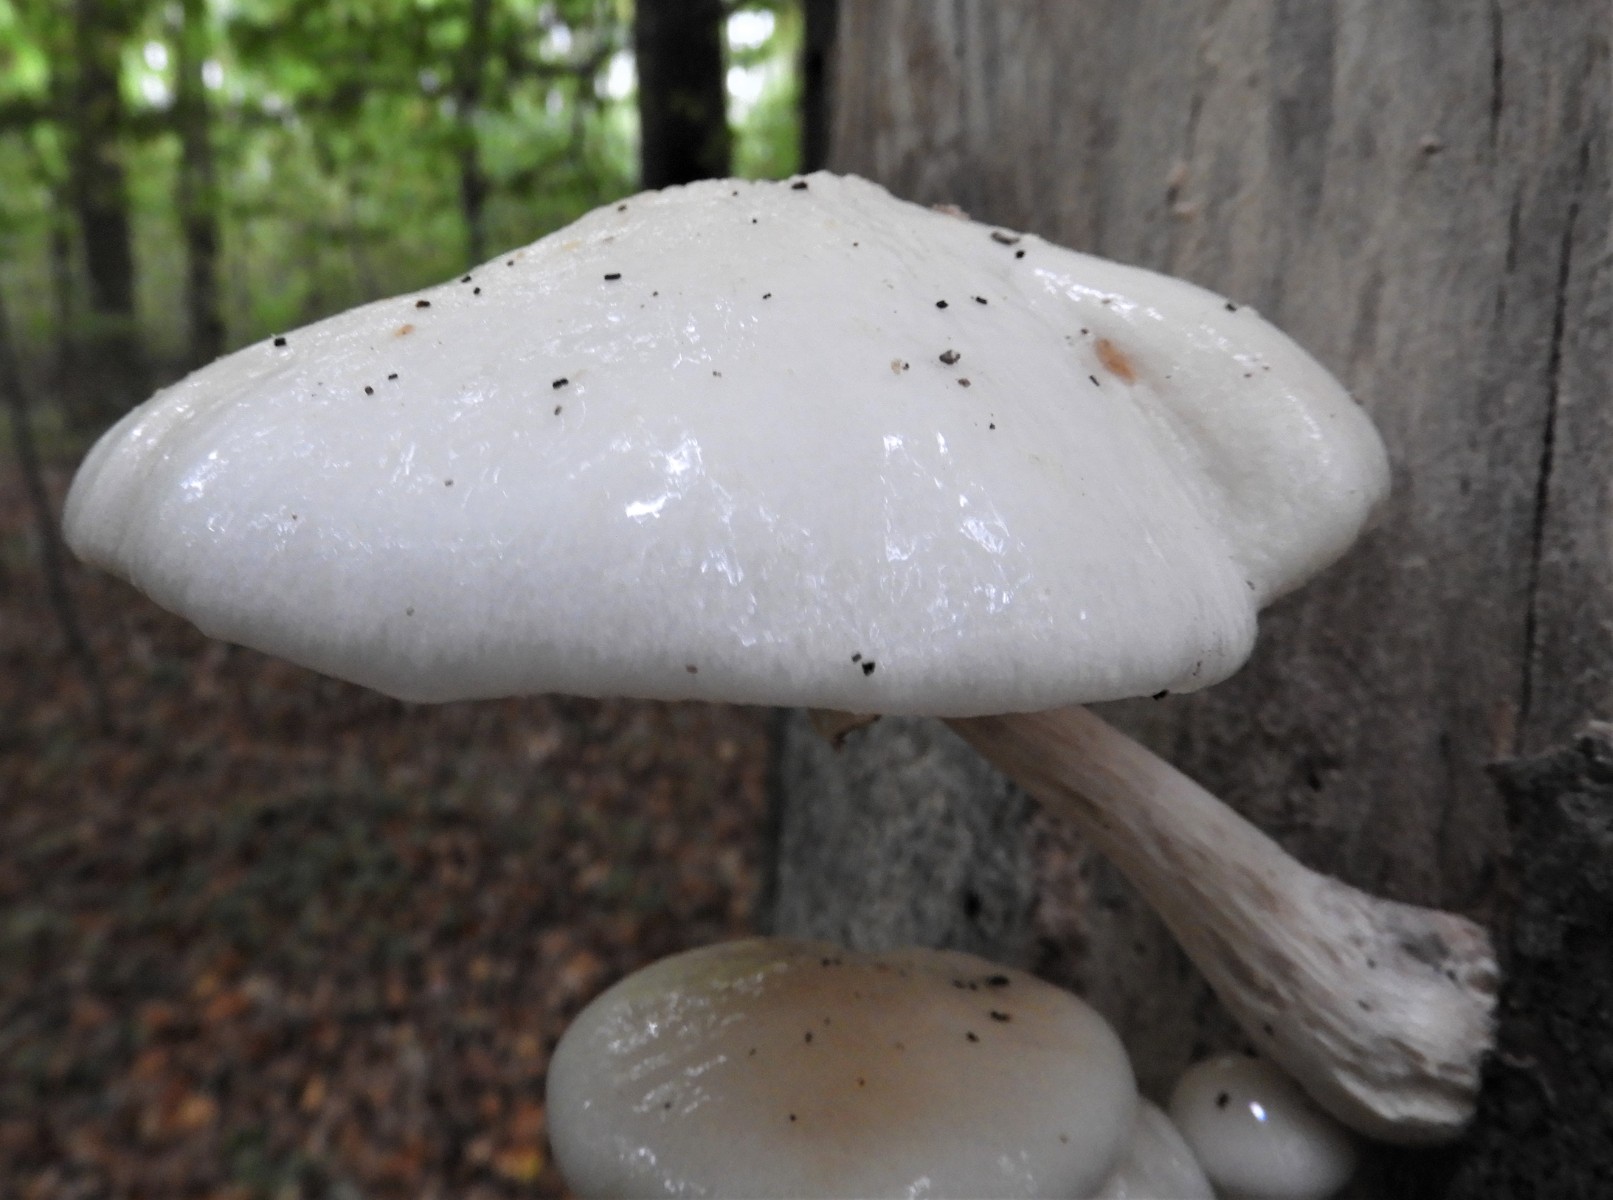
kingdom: Fungi
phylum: Basidiomycota
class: Agaricomycetes
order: Agaricales
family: Physalacriaceae
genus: Mucidula
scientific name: Mucidula mucida
